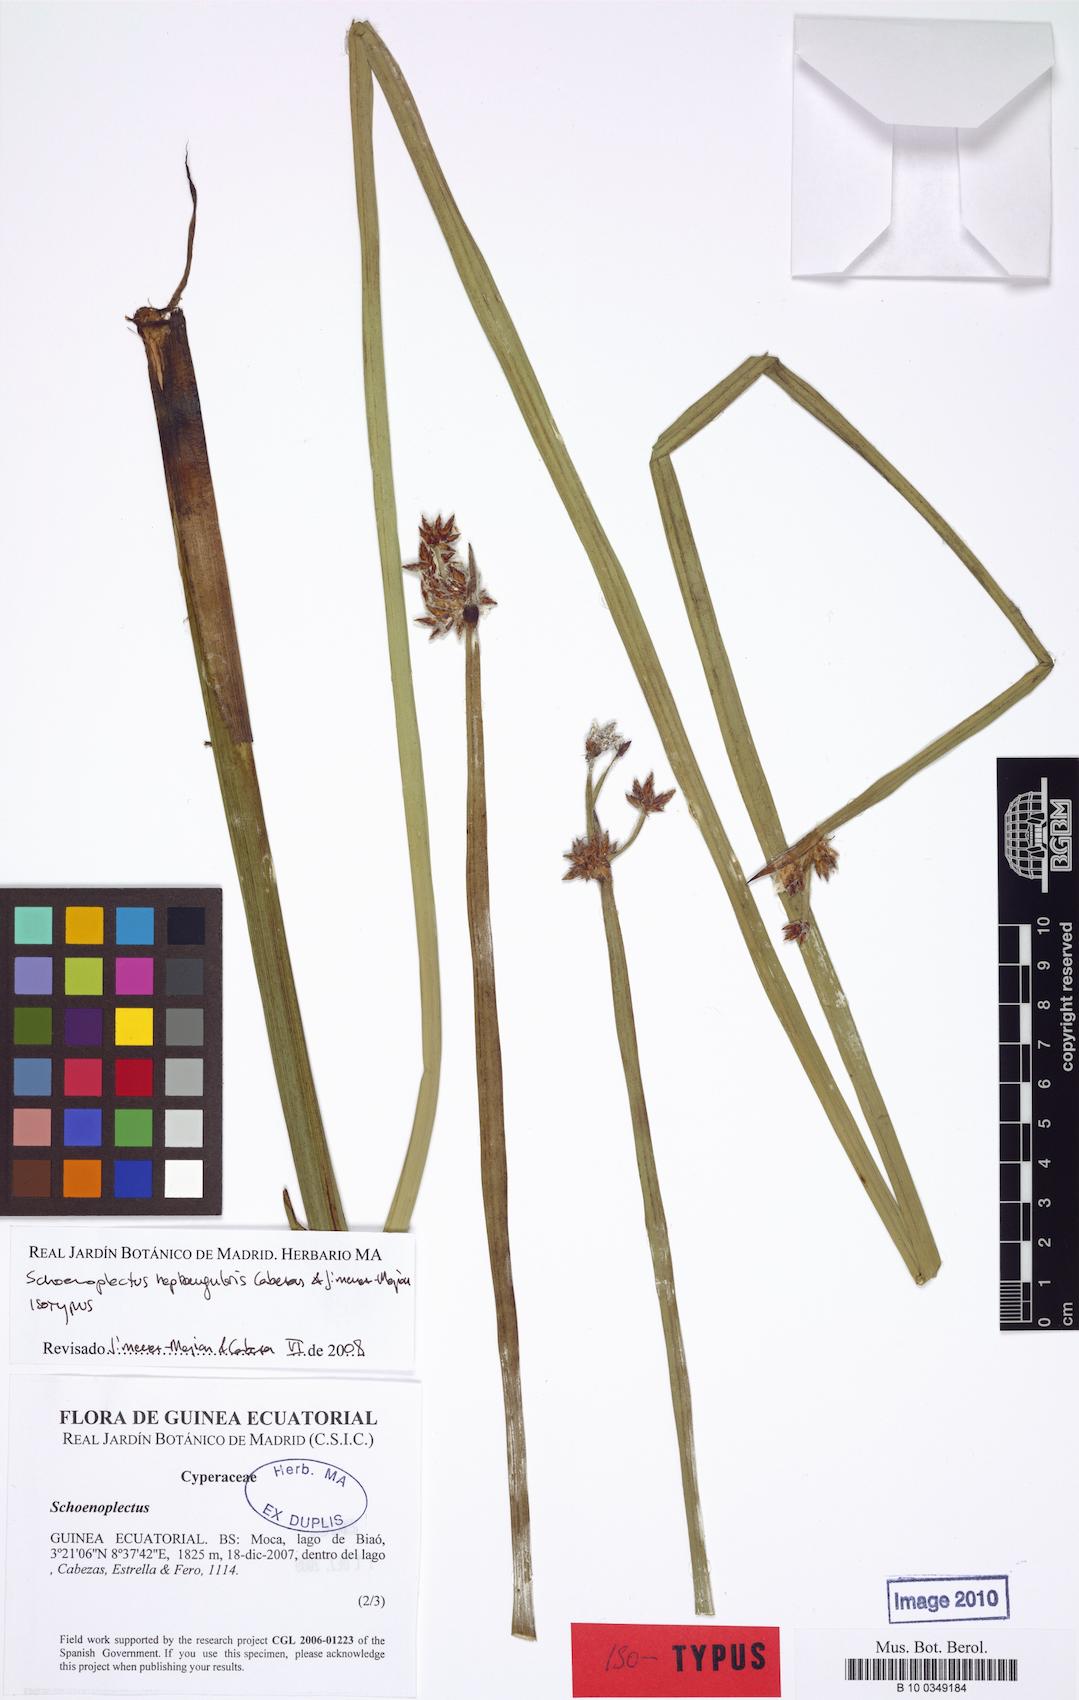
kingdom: Plantae
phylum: Tracheophyta
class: Liliopsida
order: Poales
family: Cyperaceae
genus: Schoenoplectiella
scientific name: Schoenoplectiella heptangularis
